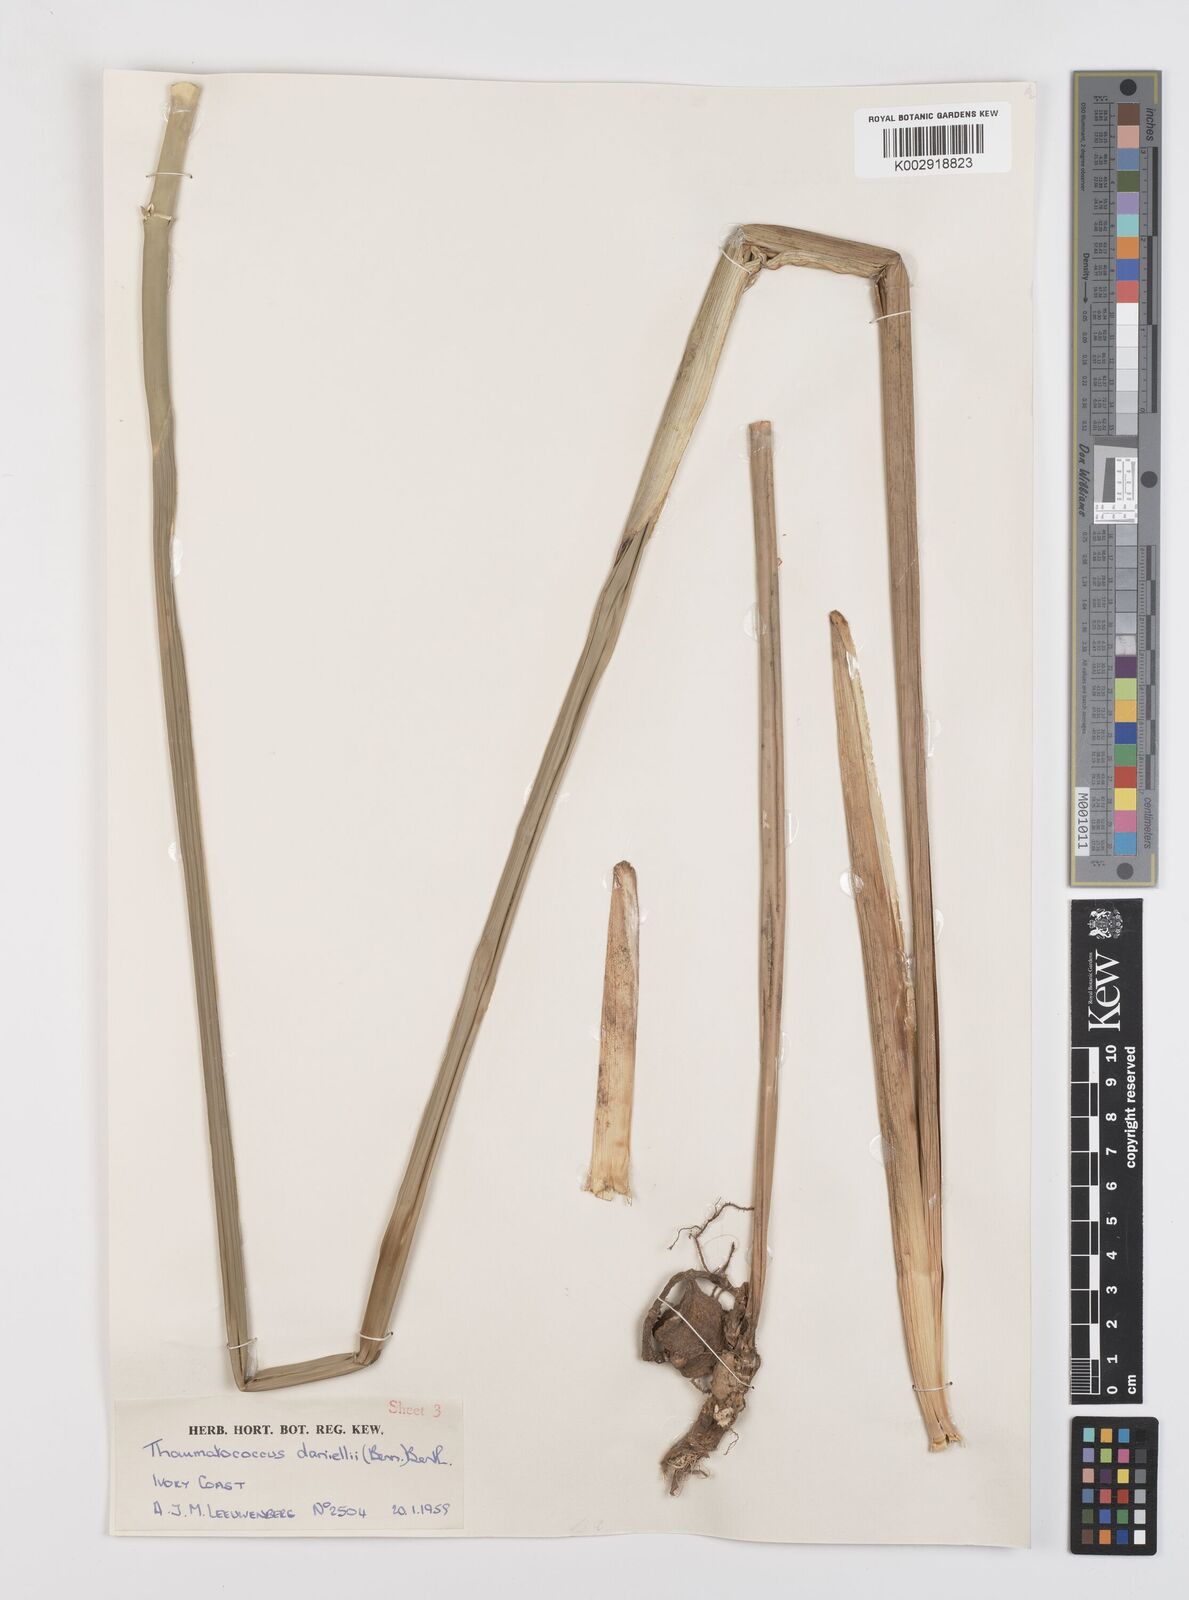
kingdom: Plantae
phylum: Tracheophyta
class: Liliopsida
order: Zingiberales
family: Marantaceae
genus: Thaumatococcus
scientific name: Thaumatococcus daniellii
